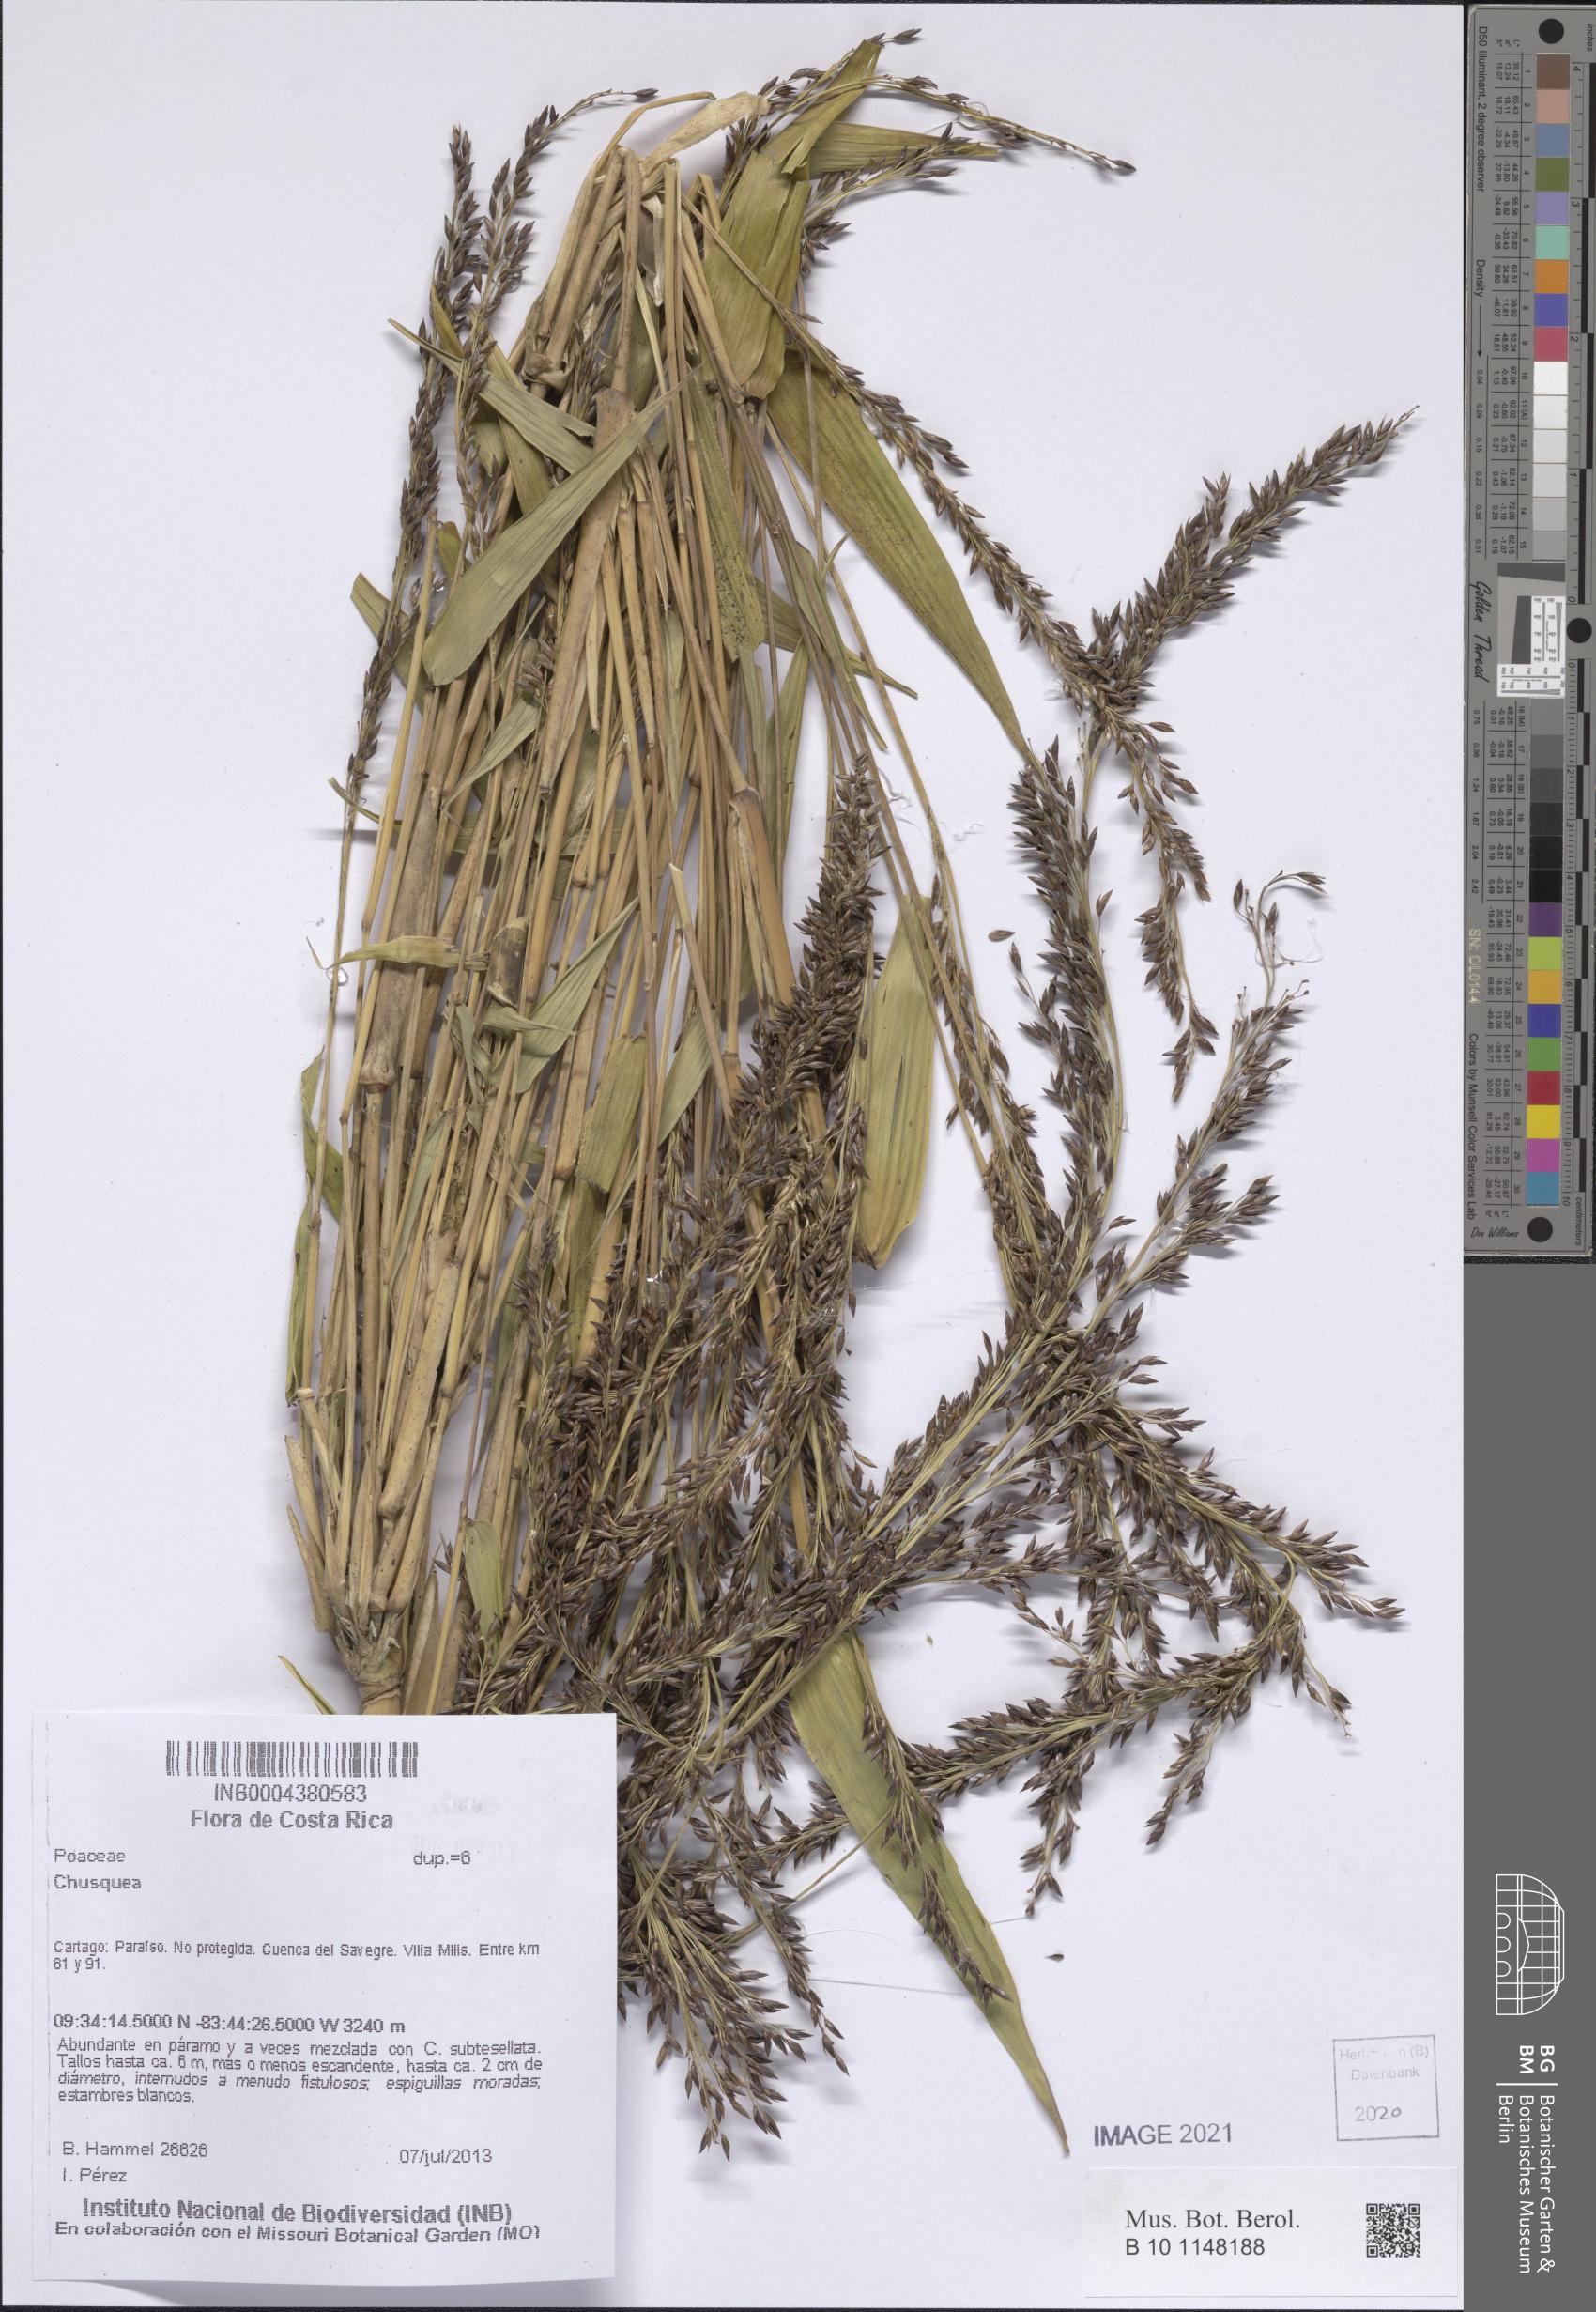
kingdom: Plantae
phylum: Tracheophyta
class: Liliopsida
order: Poales
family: Poaceae
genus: Chusquea
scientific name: Chusquea
